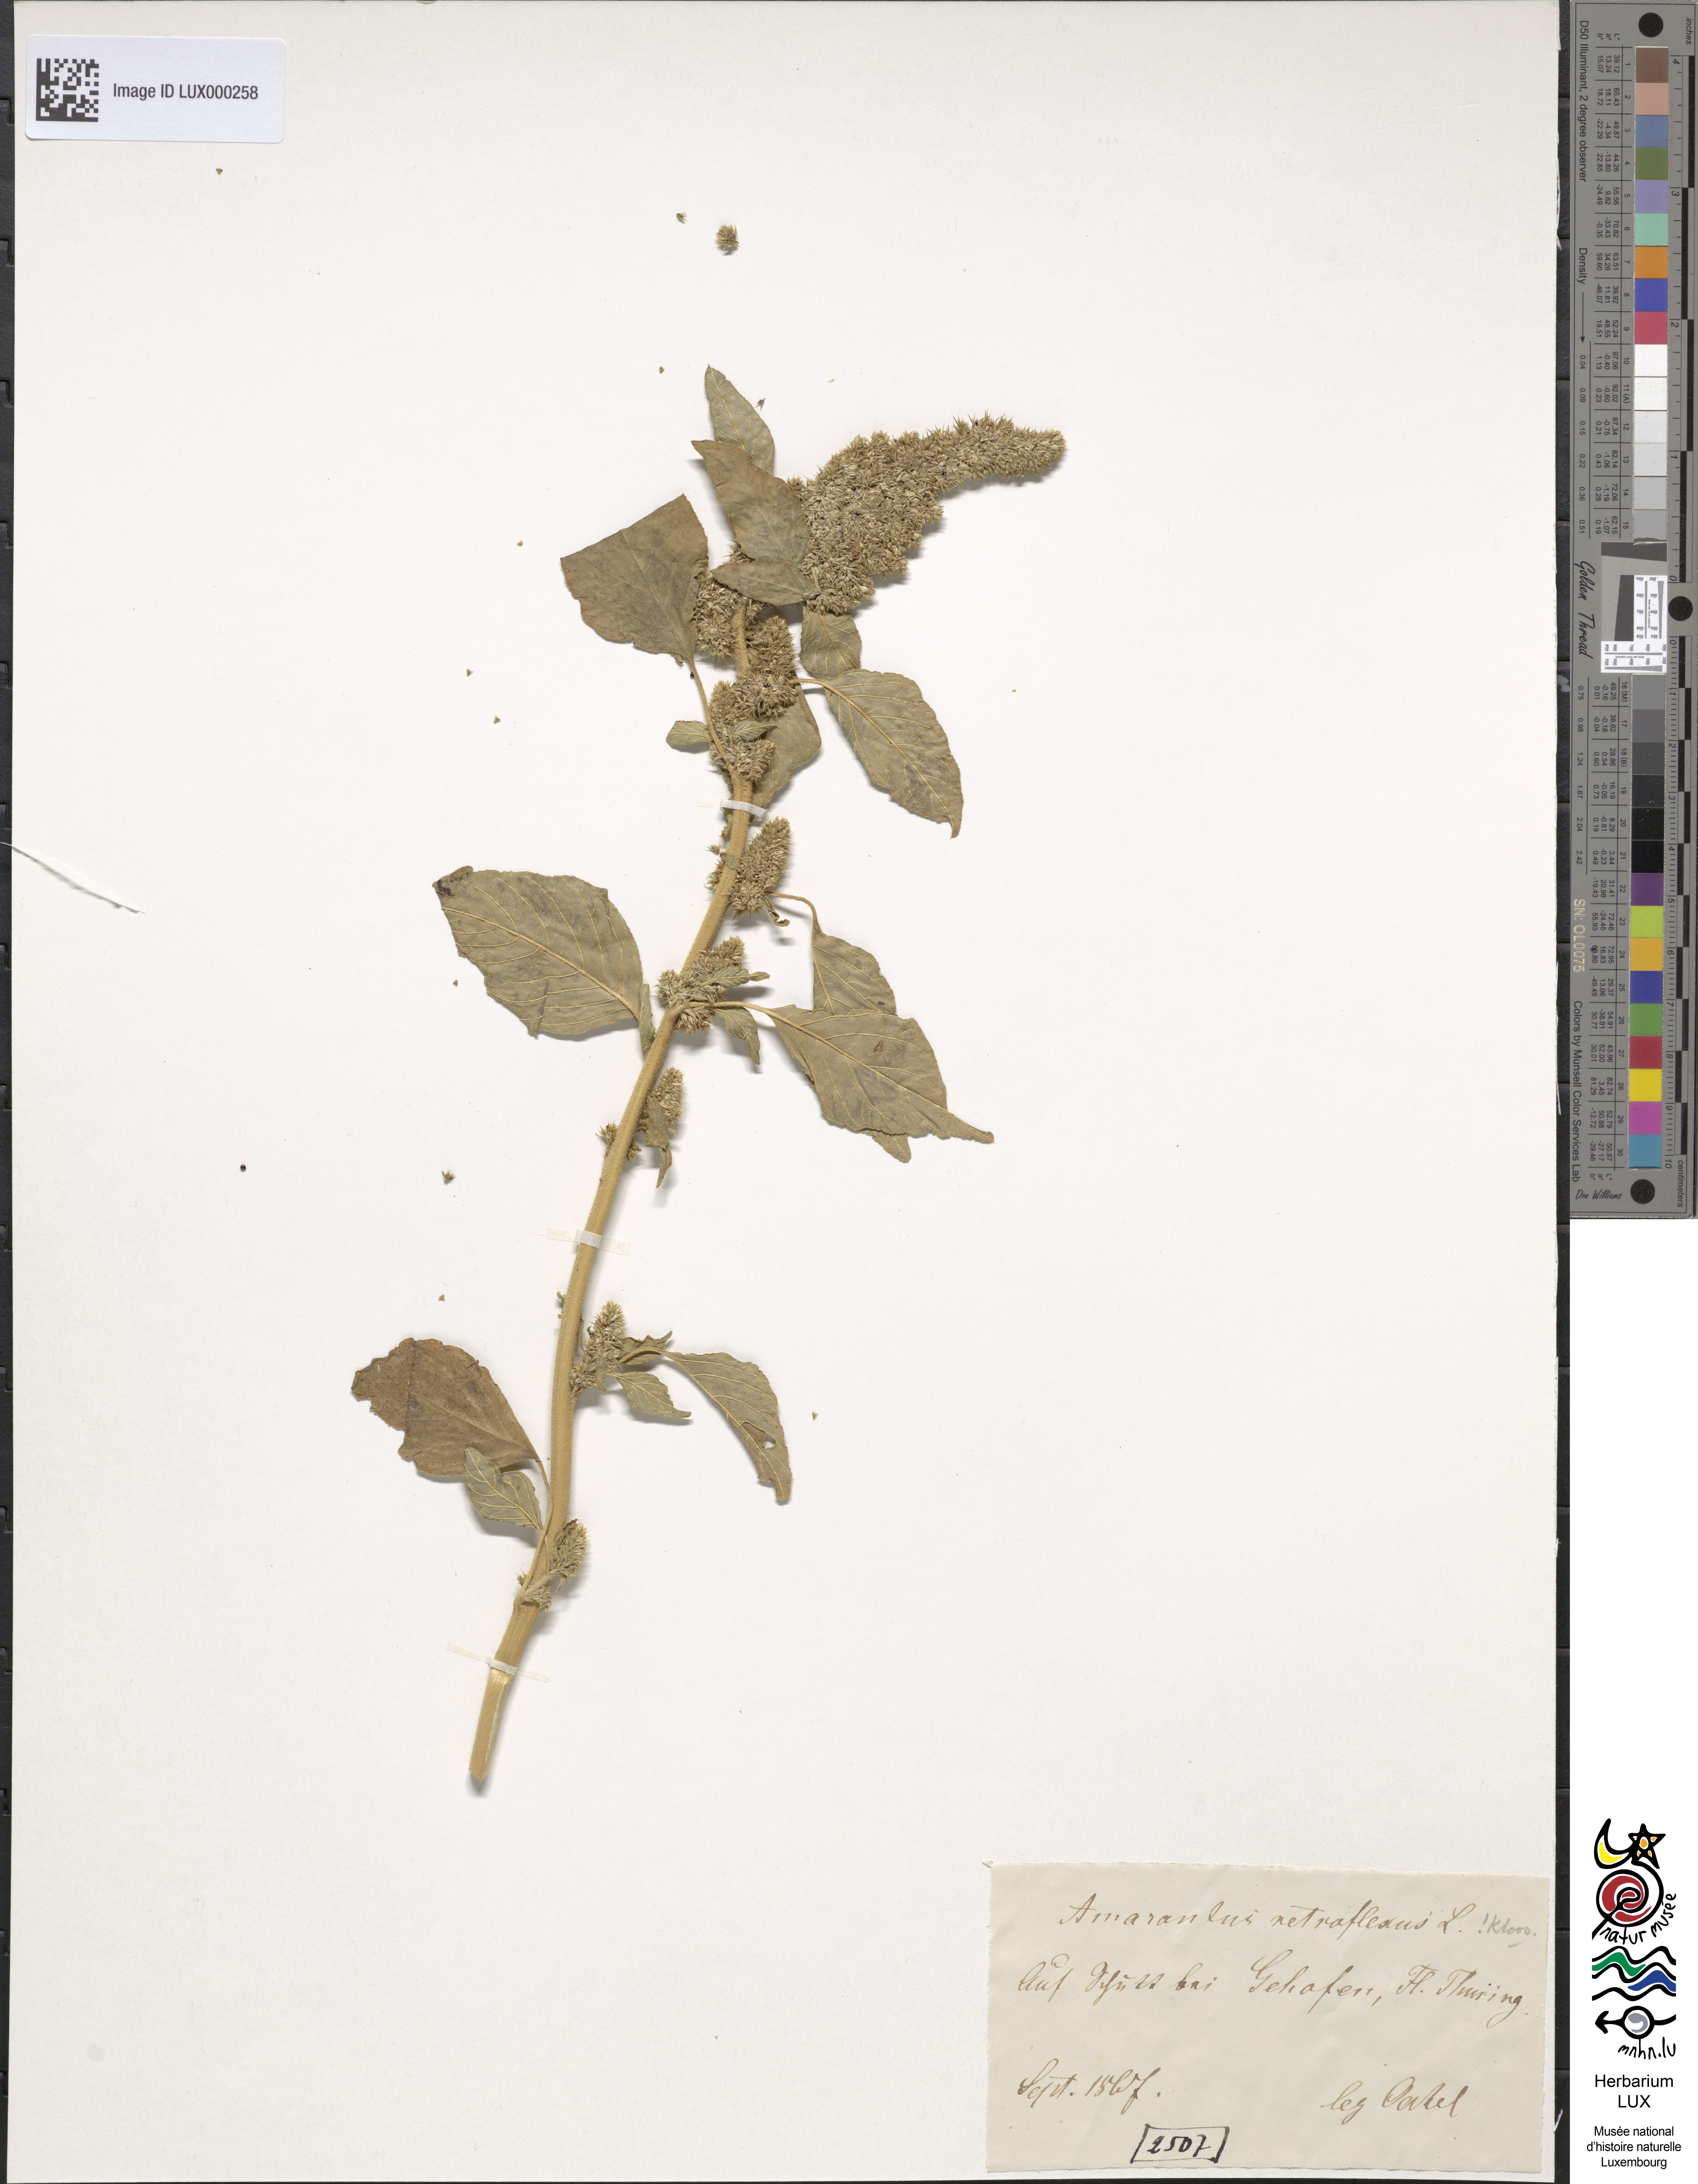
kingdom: Plantae
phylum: Tracheophyta
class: Magnoliopsida
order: Caryophyllales
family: Amaranthaceae
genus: Amaranthus
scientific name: Amaranthus retroflexus
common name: Redroot amaranth
